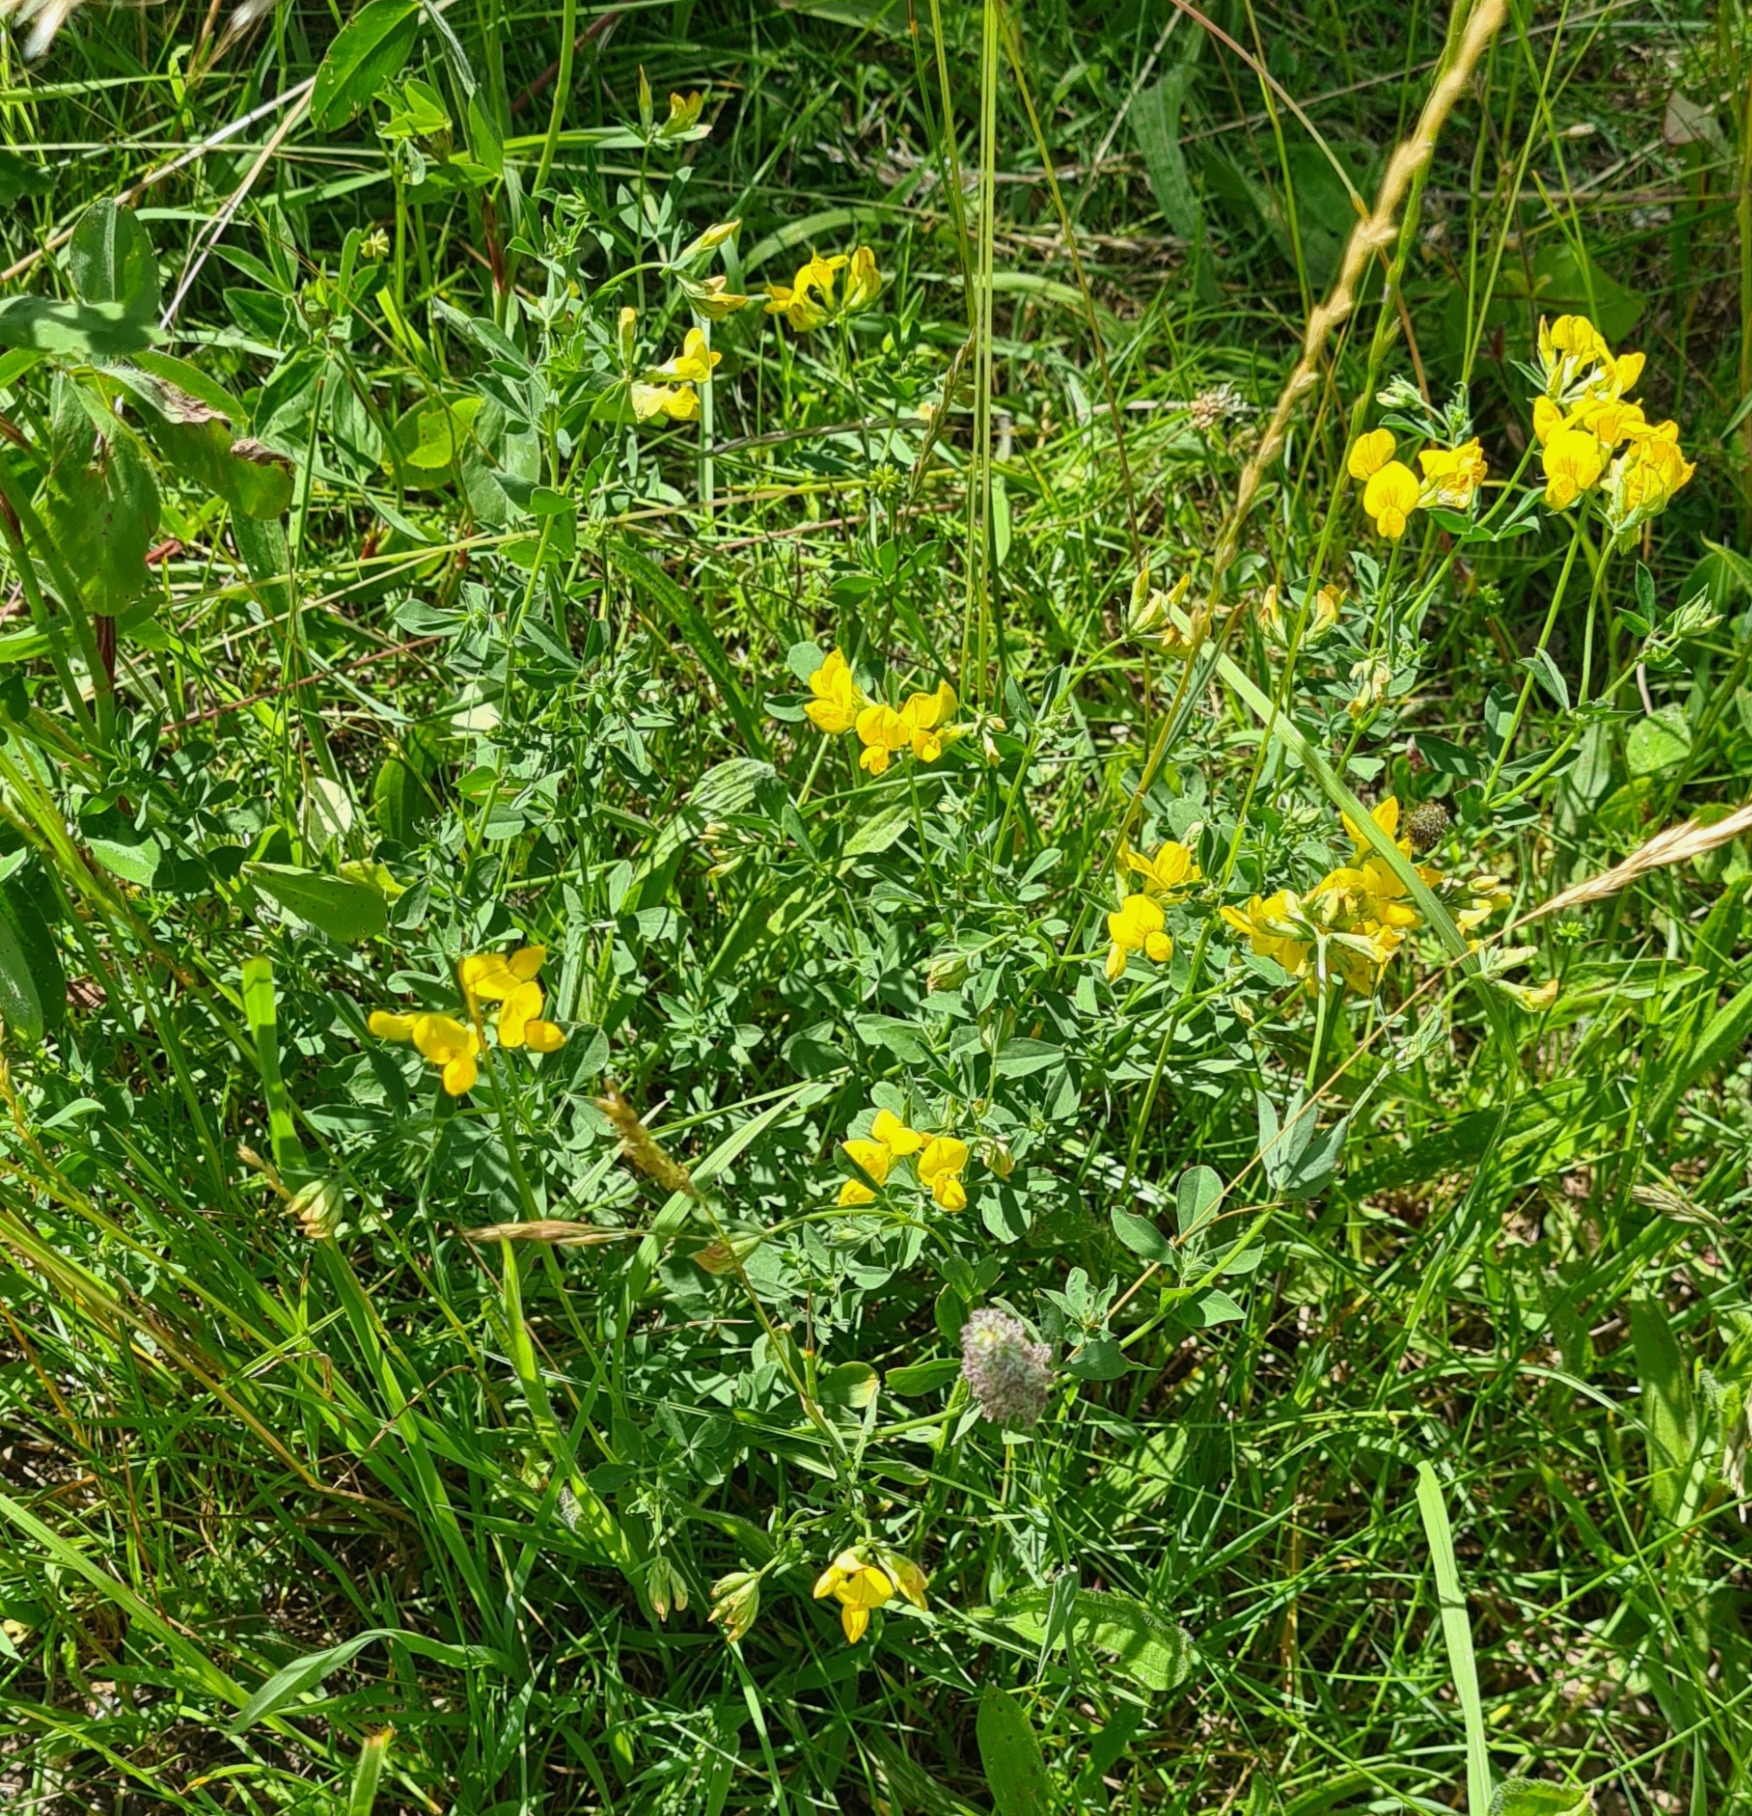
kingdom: Plantae
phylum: Tracheophyta
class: Magnoliopsida
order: Fabales
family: Fabaceae
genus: Lotus
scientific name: Lotus corniculatus
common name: Almindelig kællingetand
